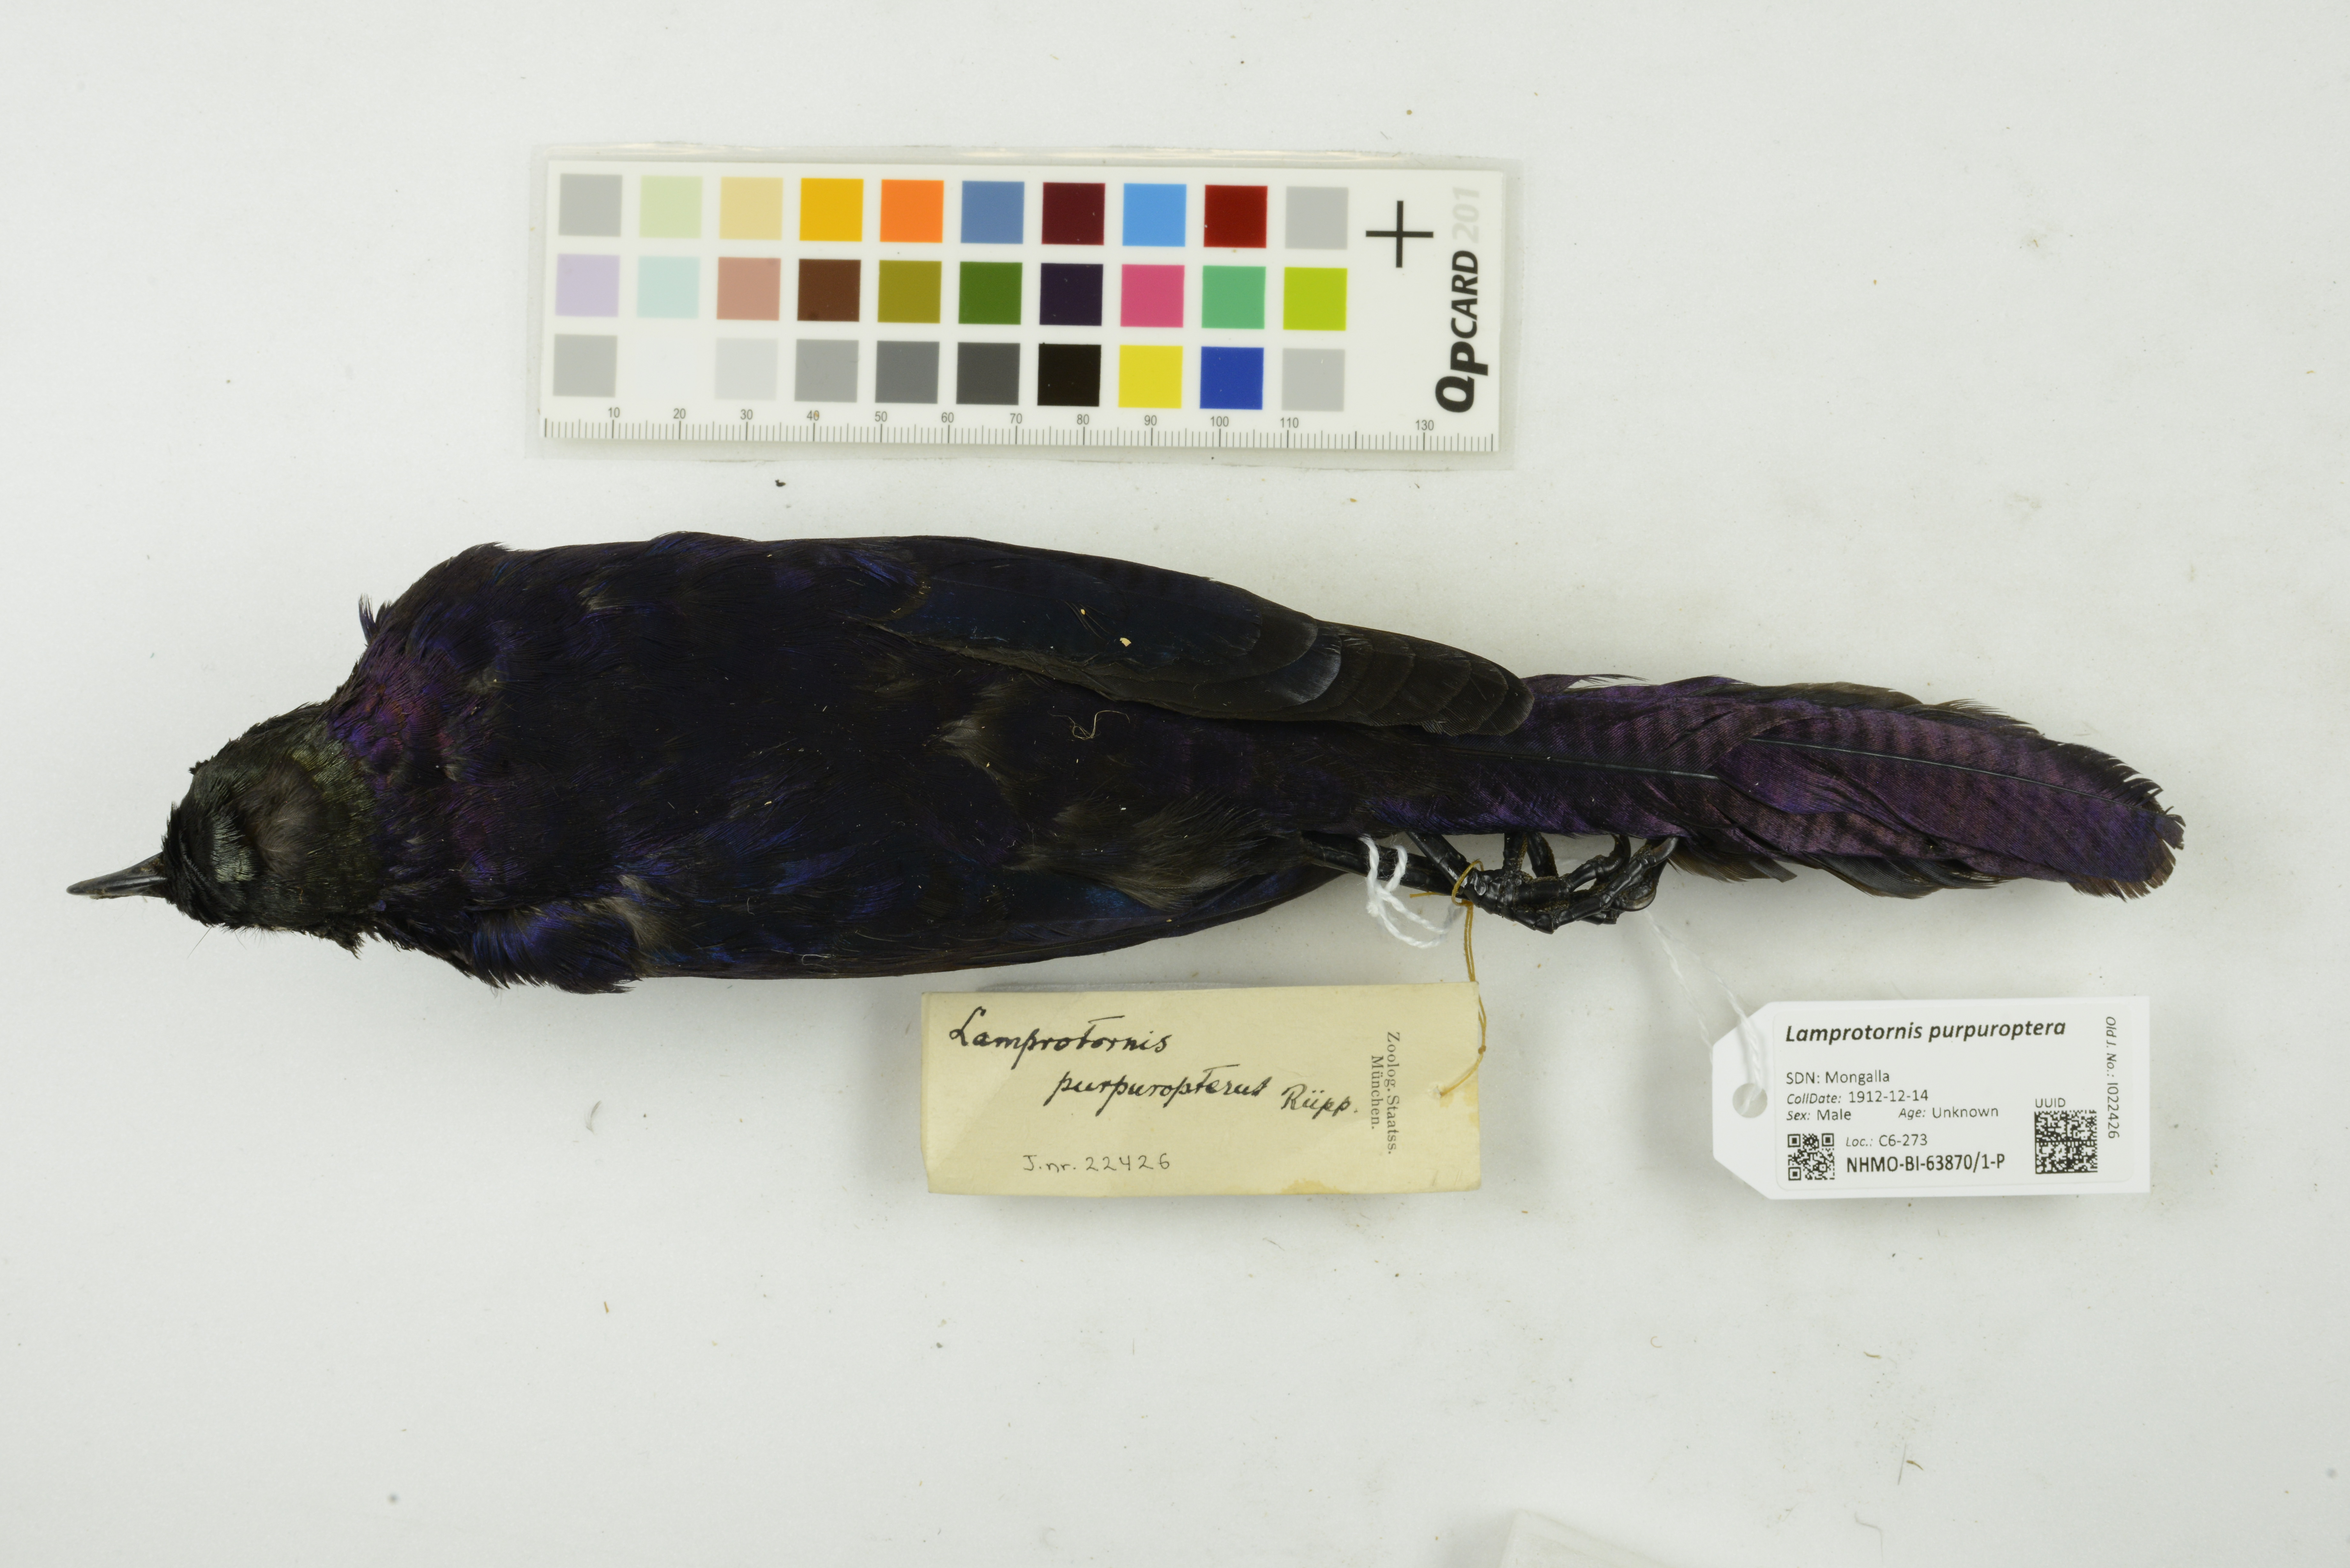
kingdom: Animalia
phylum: Chordata
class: Aves
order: Passeriformes
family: Sturnidae
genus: Lamprotornis
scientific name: Lamprotornis purpuroptera
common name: Rüppell's starling
